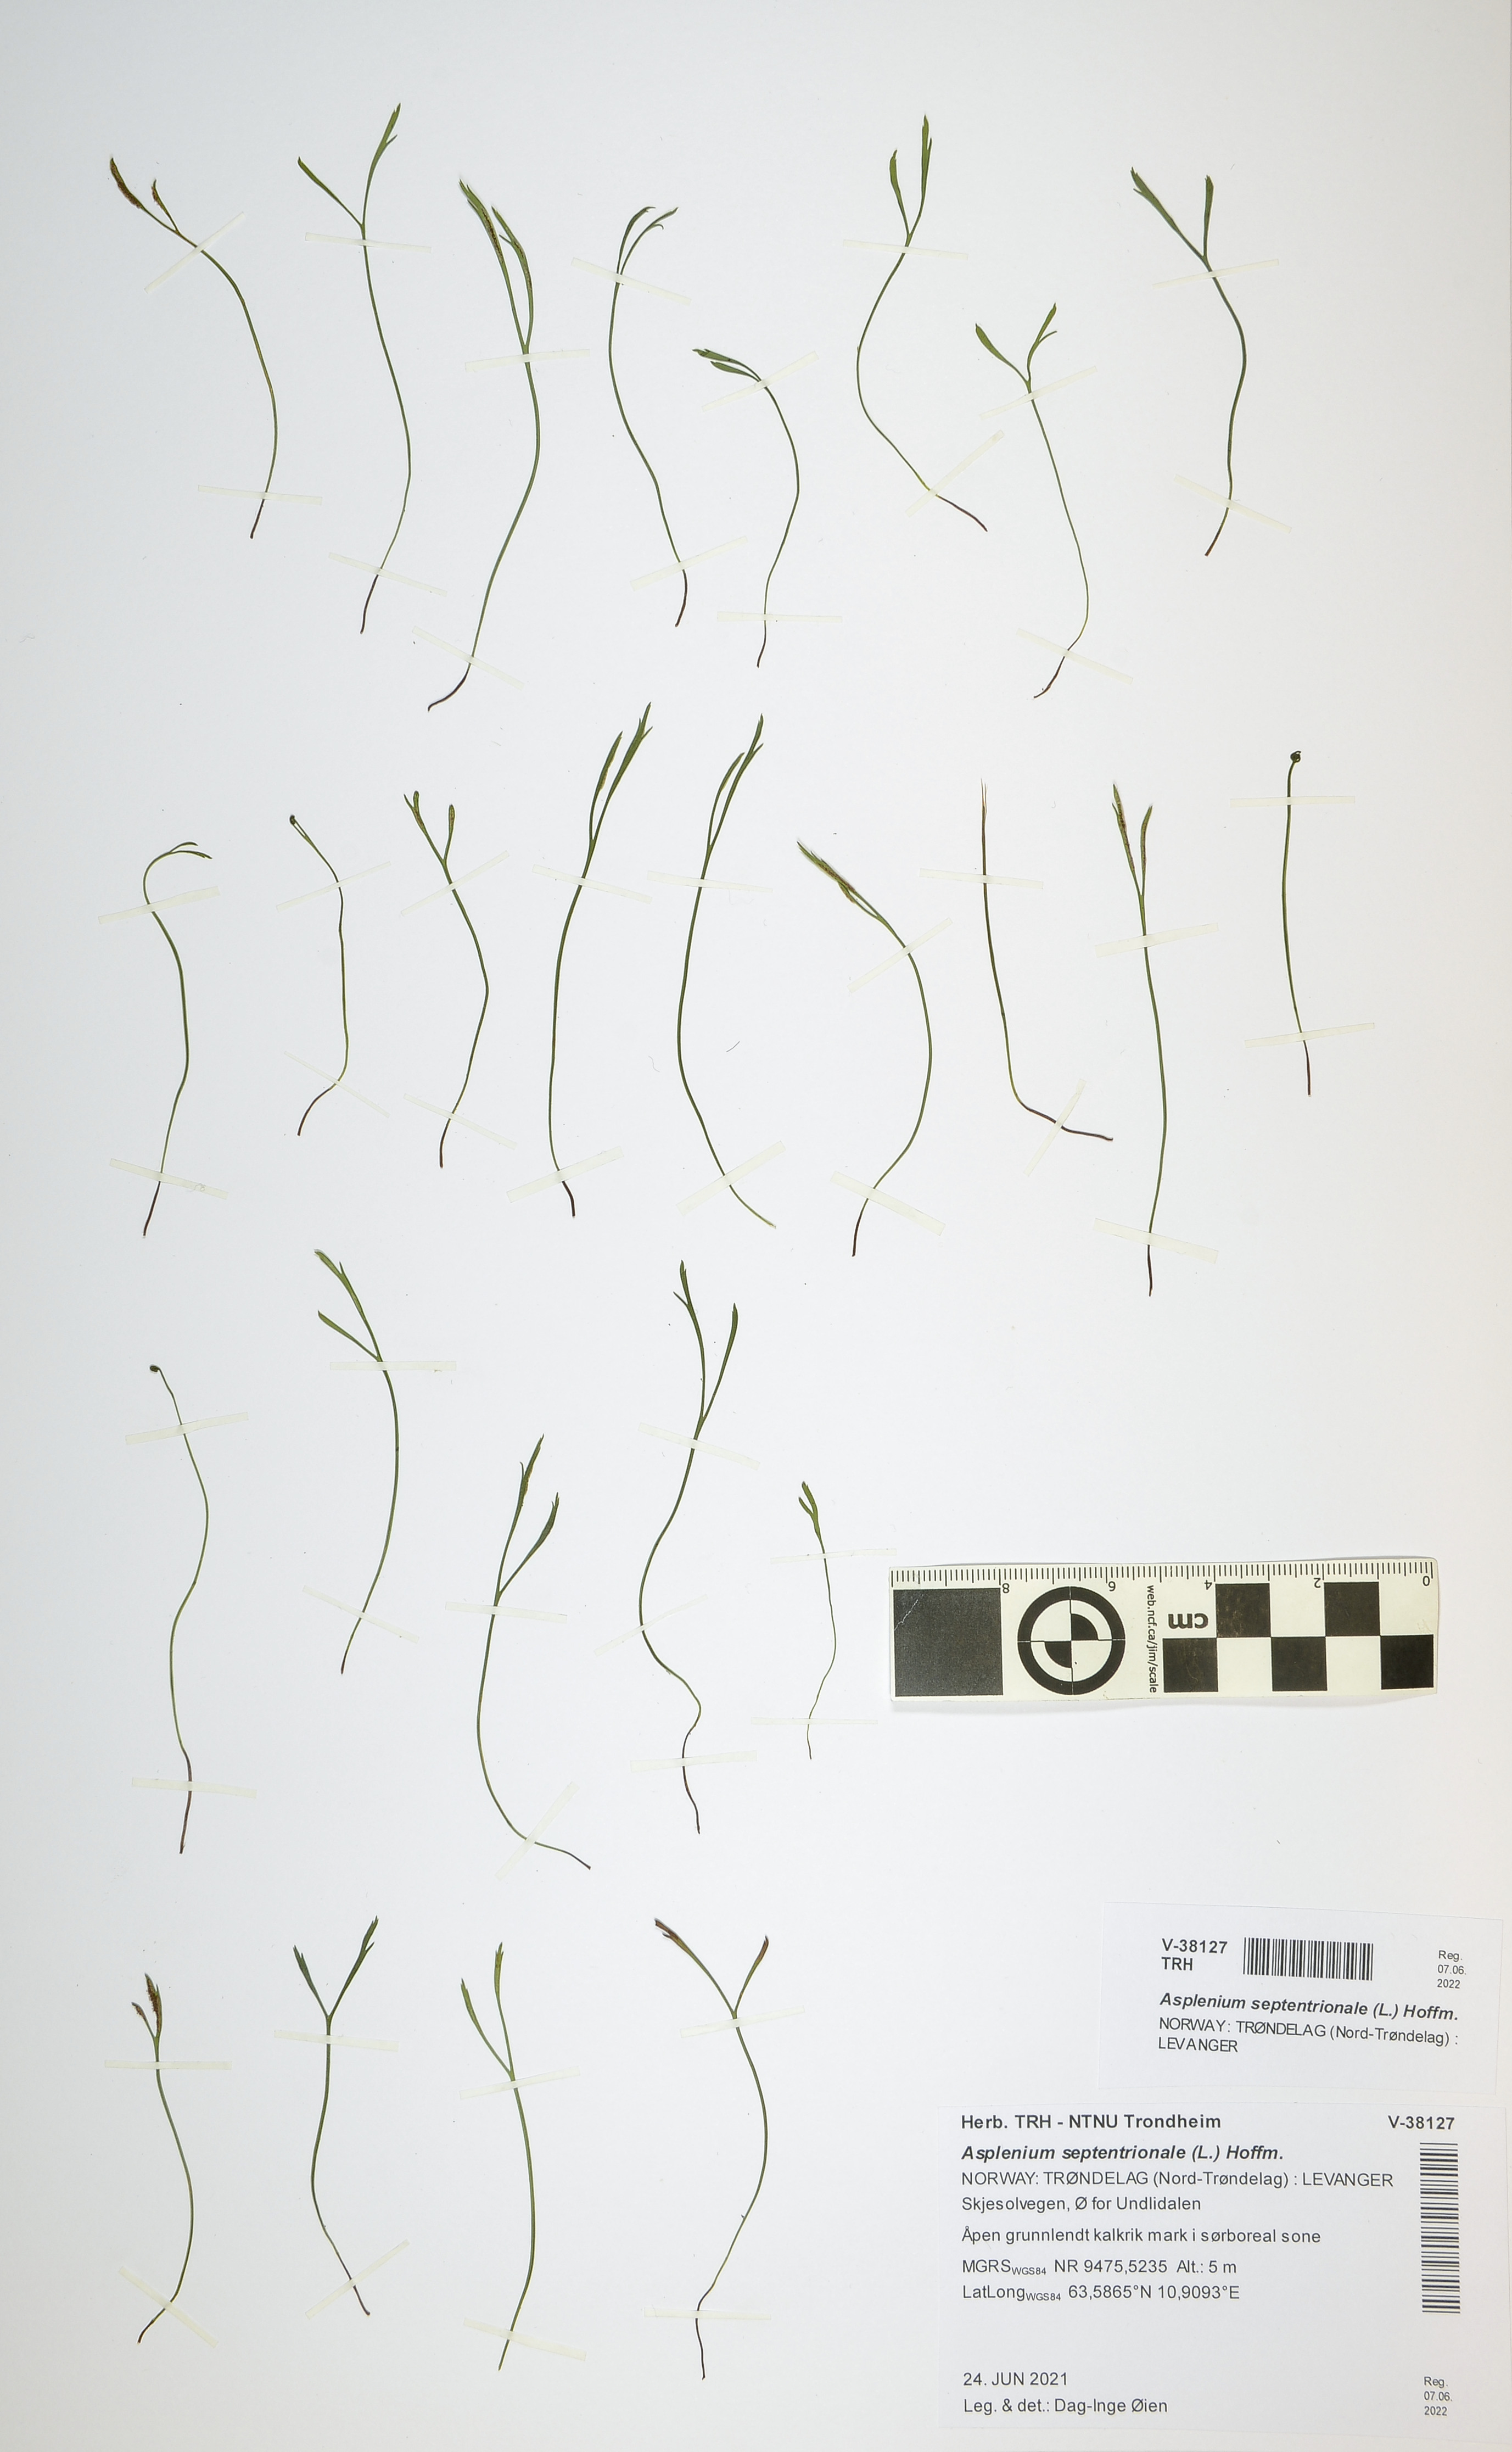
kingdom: Plantae
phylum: Tracheophyta
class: Polypodiopsida
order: Polypodiales
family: Aspleniaceae
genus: Asplenium
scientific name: Asplenium septentrionale
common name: Forked spleenwort
